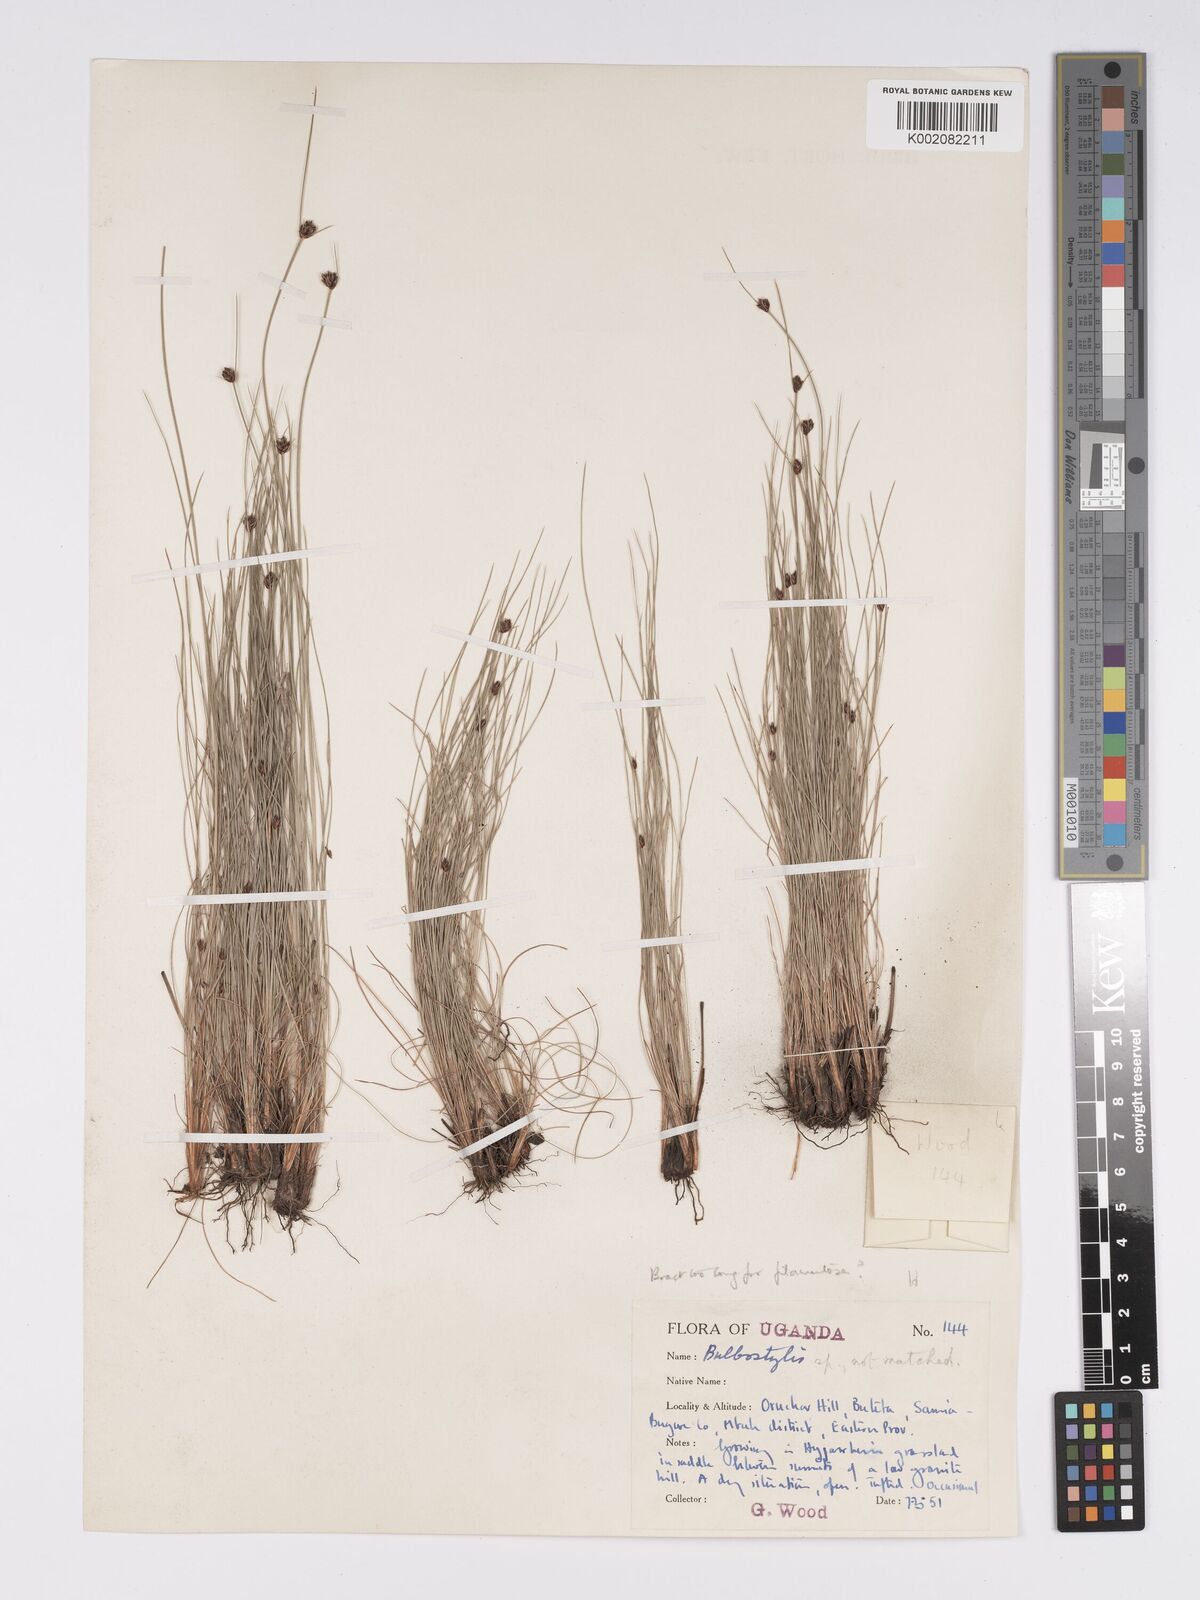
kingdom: Plantae
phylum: Tracheophyta
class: Liliopsida
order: Poales
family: Cyperaceae
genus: Bulbostylis
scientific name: Bulbostylis scabricaulis
